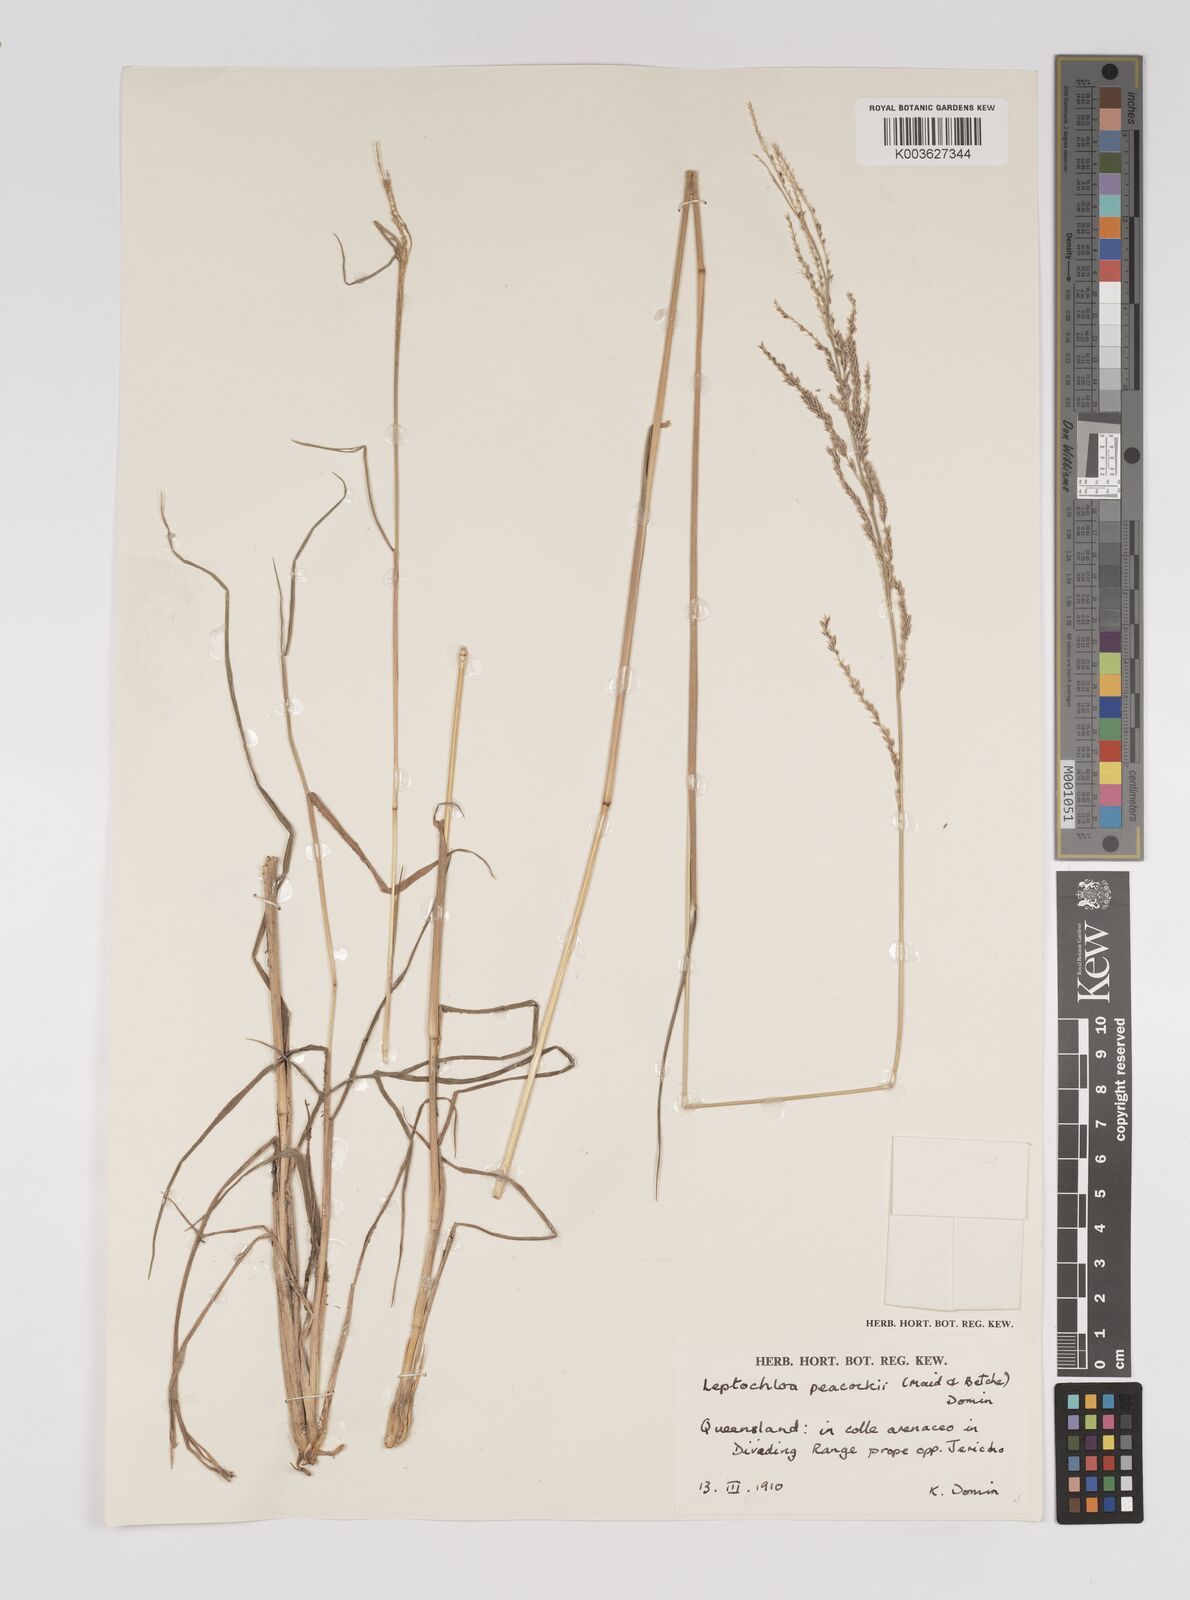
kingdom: Plantae
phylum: Tracheophyta
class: Liliopsida
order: Poales
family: Poaceae
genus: Leptochloa
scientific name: Leptochloa decipiens
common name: Australian sprangletop
